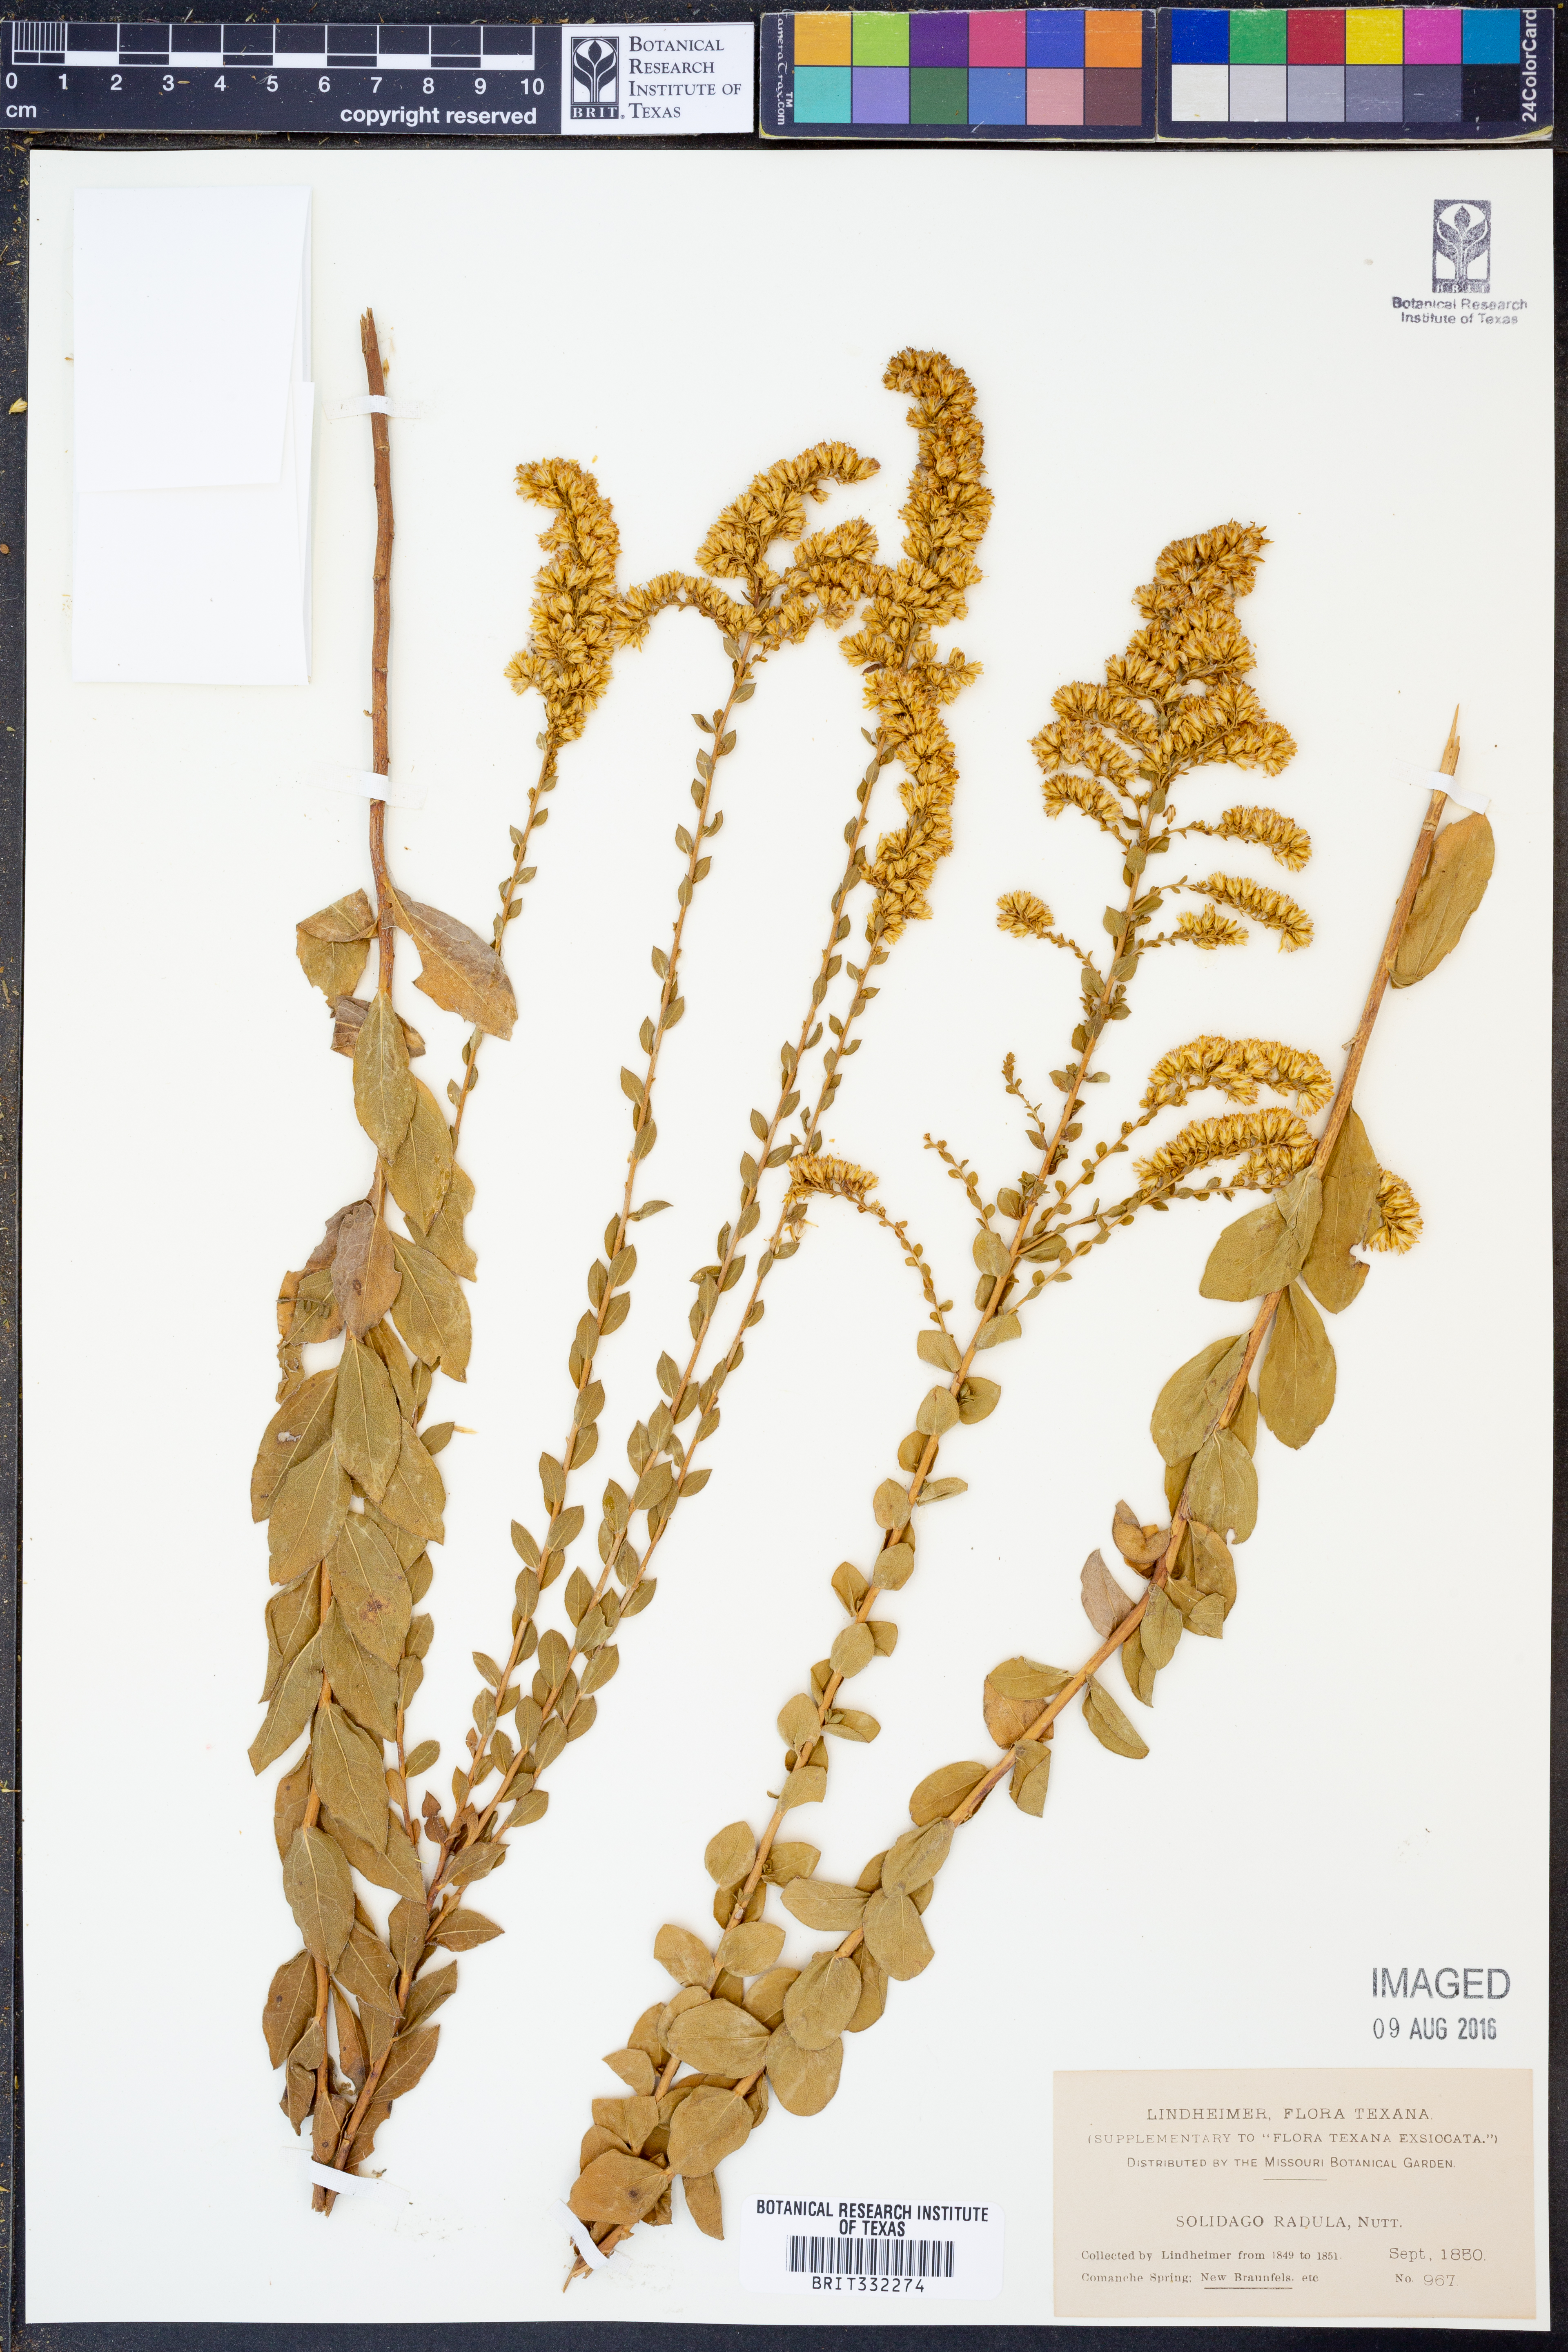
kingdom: Plantae
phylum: Tracheophyta
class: Magnoliopsida
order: Asterales
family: Asteraceae
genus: Solidago
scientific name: Solidago radula
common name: Western rough goldenrod
